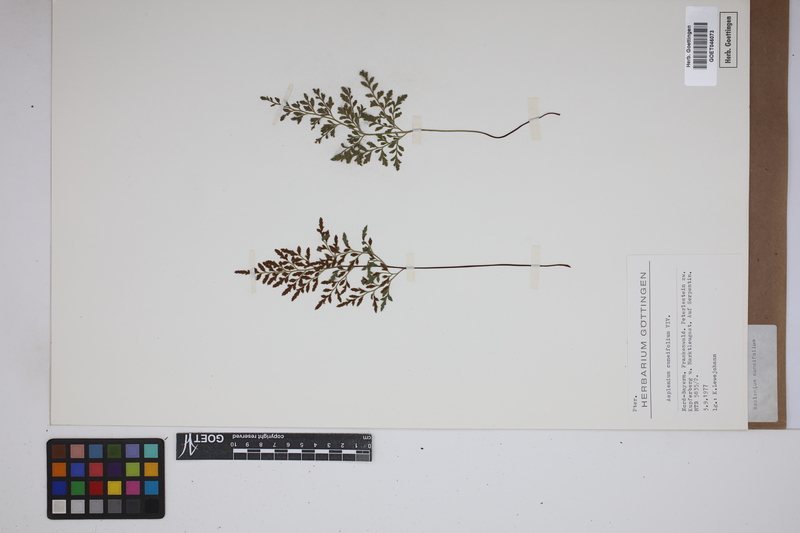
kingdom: Plantae
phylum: Tracheophyta
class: Polypodiopsida
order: Polypodiales
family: Aspleniaceae
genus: Asplenium
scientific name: Asplenium cuneifolium
